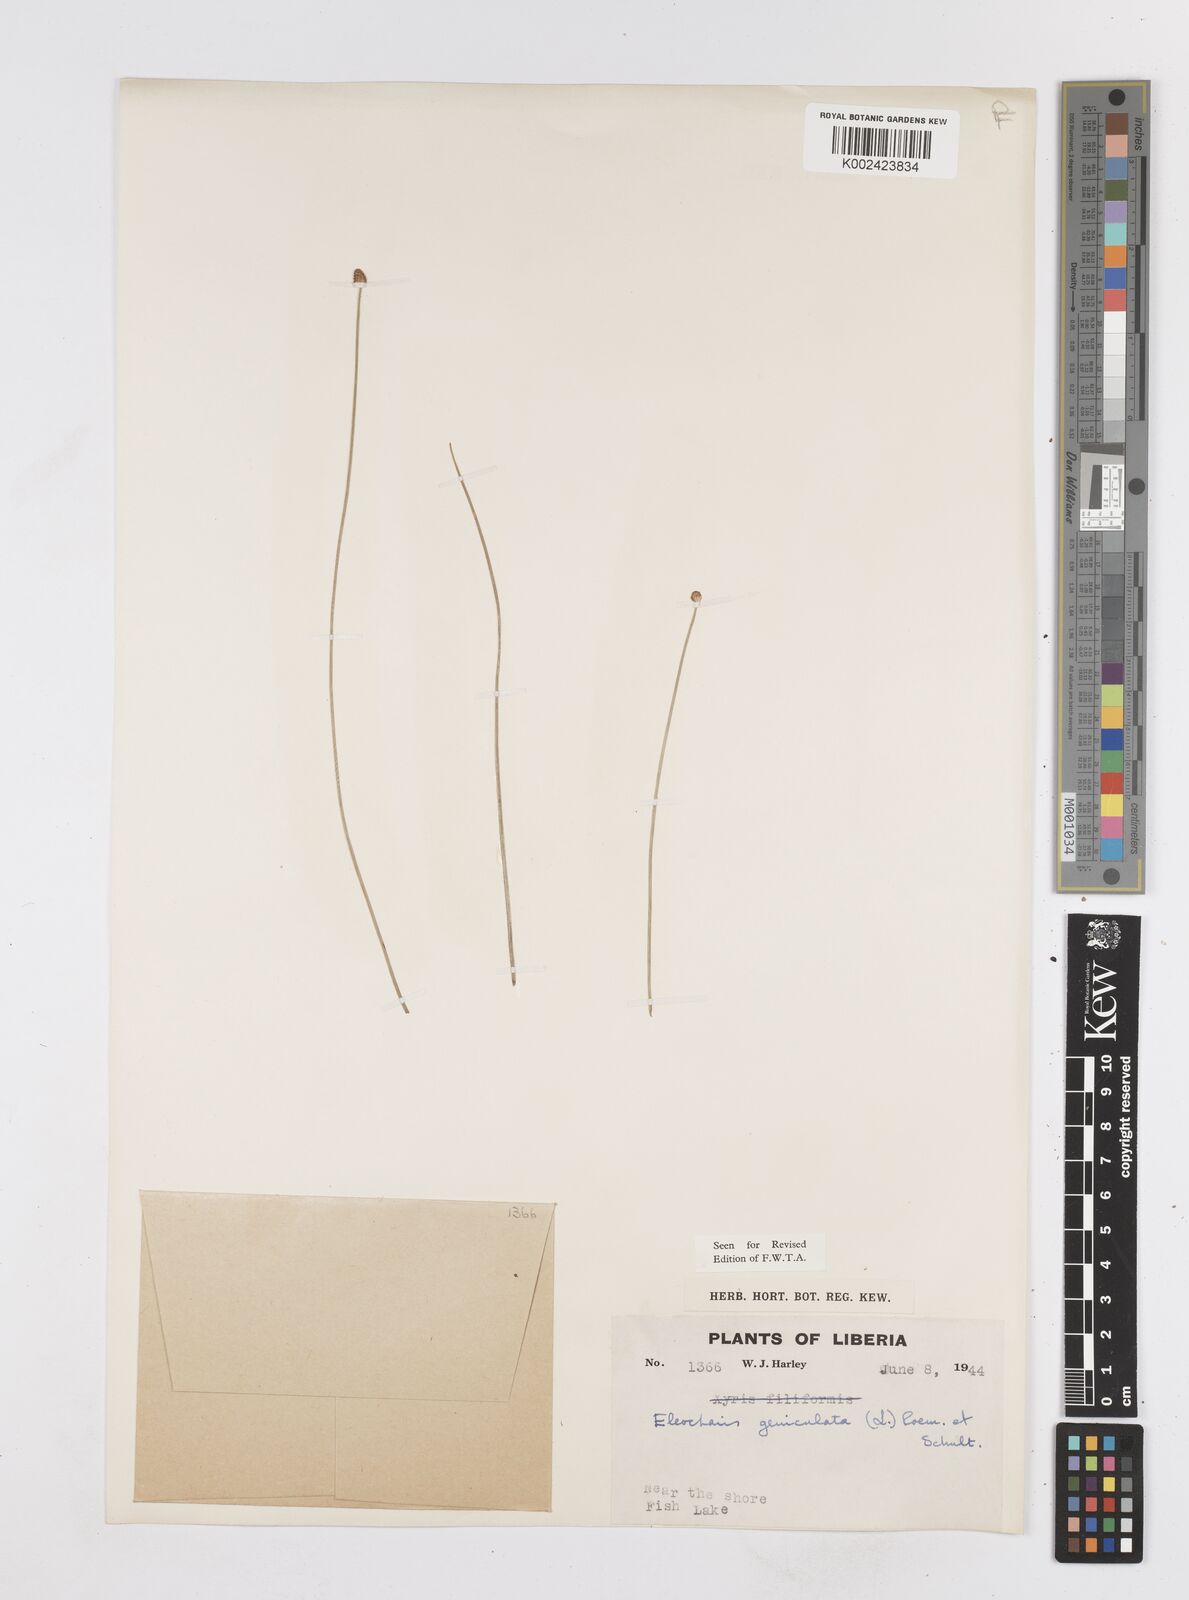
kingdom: Plantae
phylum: Tracheophyta
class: Liliopsida
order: Poales
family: Cyperaceae
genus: Eleocharis
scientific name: Eleocharis geniculata
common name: Canada spikesedge
